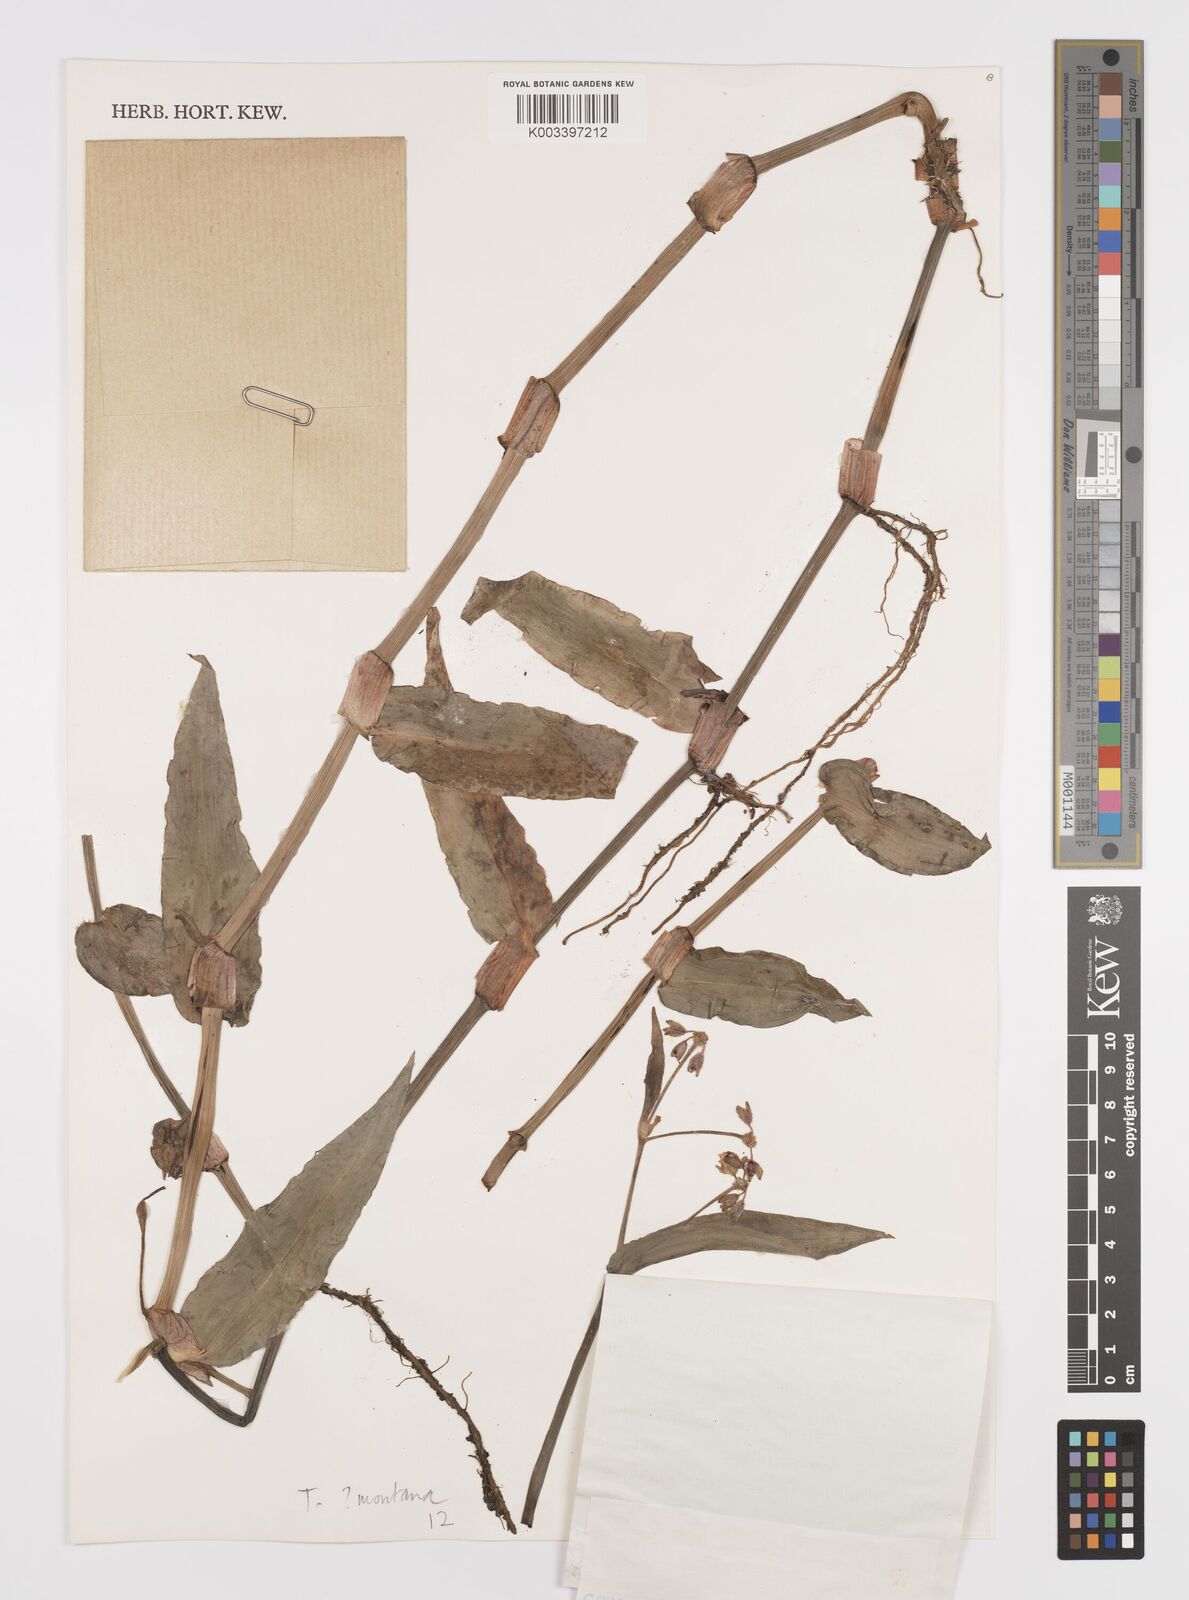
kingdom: Plantae
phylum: Tracheophyta
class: Liliopsida
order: Commelinales
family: Commelinaceae
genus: Callisia
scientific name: Callisia montana
